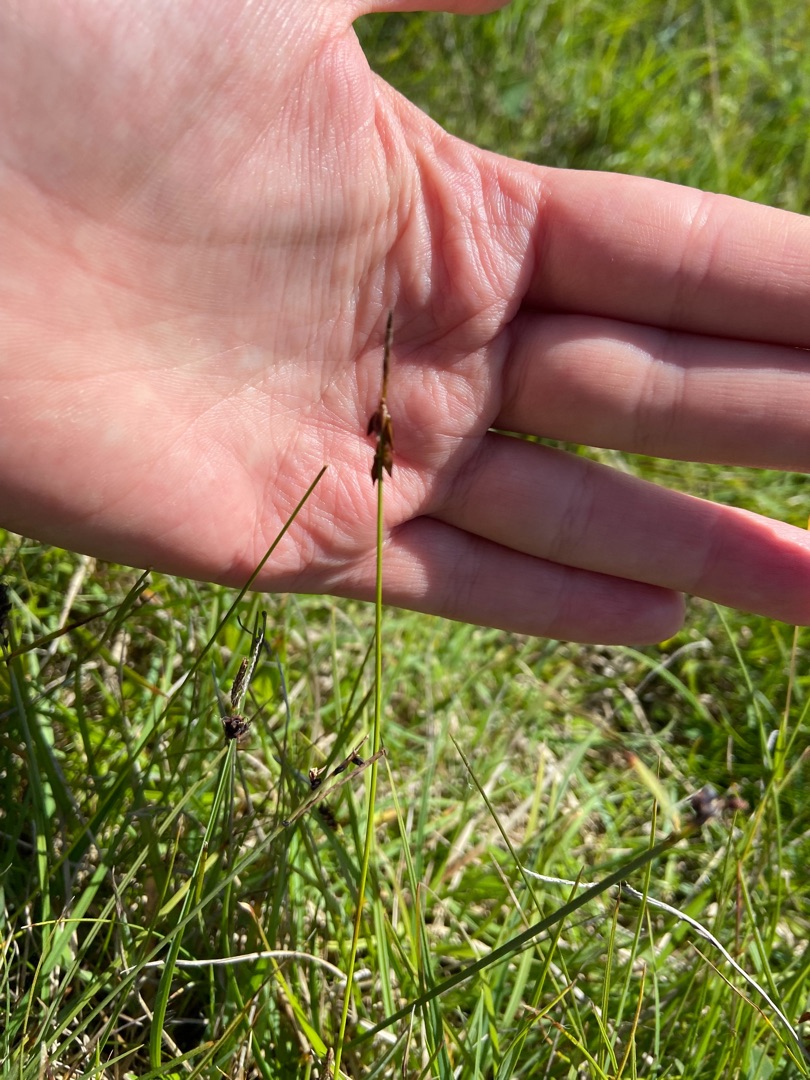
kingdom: Plantae
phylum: Tracheophyta
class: Liliopsida
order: Poales
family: Cyperaceae
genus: Carex
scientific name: Carex pulicaris
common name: Loppe-star
